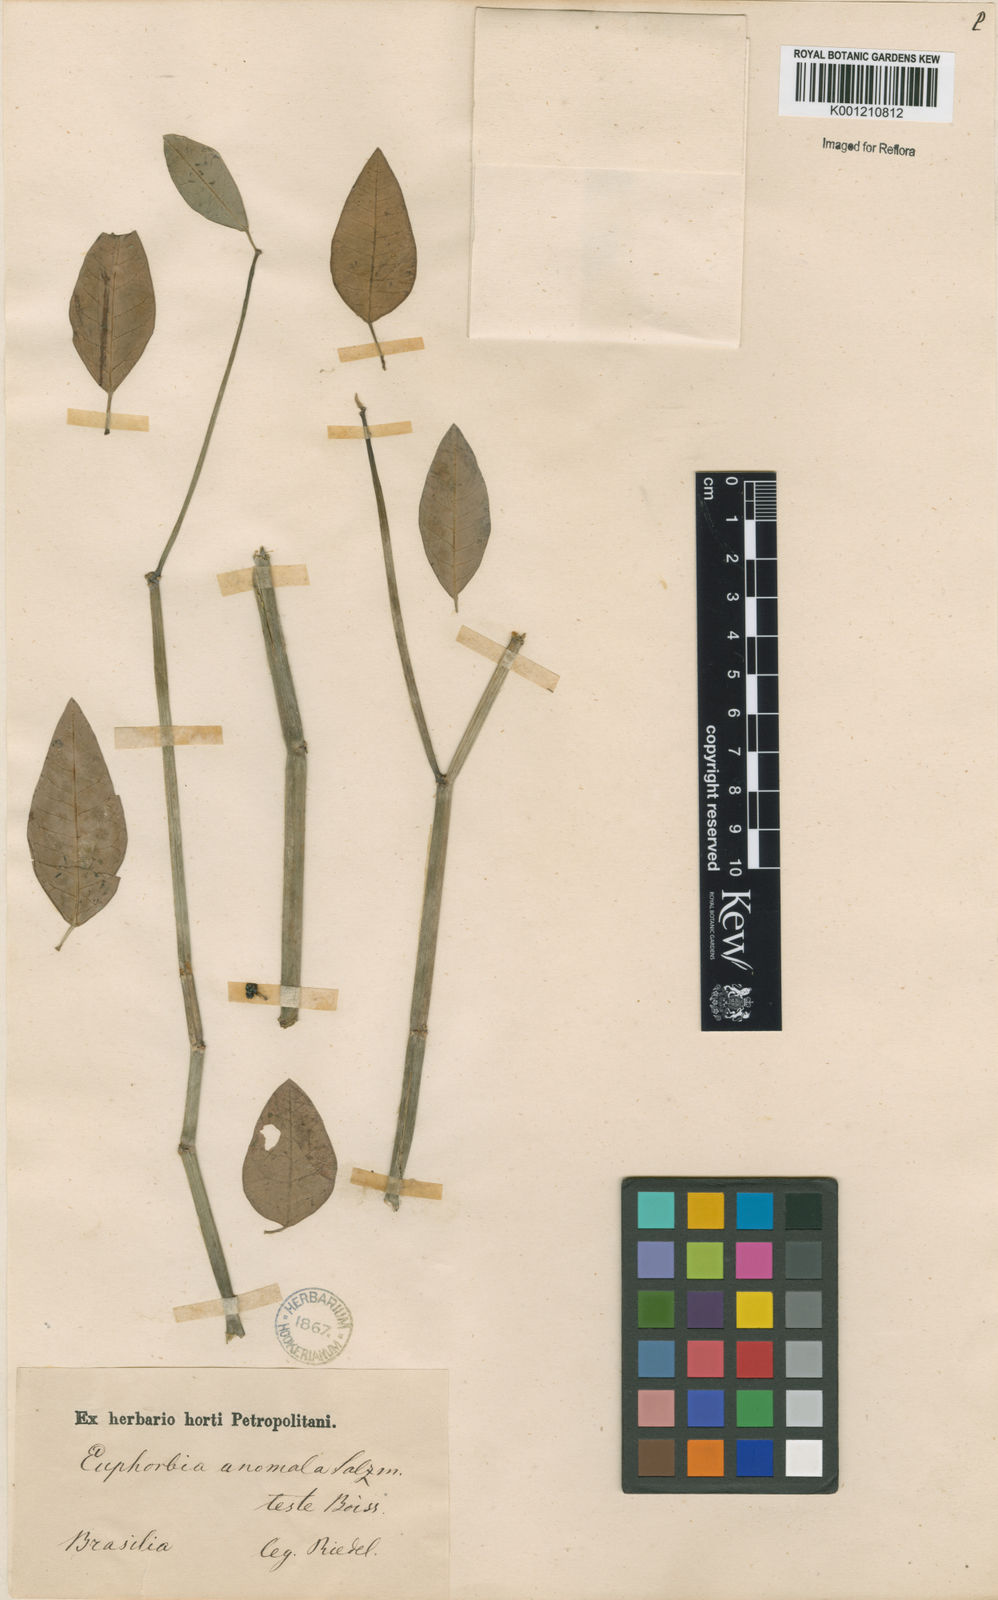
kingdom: Plantae
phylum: Tracheophyta
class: Magnoliopsida
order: Malpighiales
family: Euphorbiaceae
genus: Euphorbia
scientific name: Euphorbia insulana
